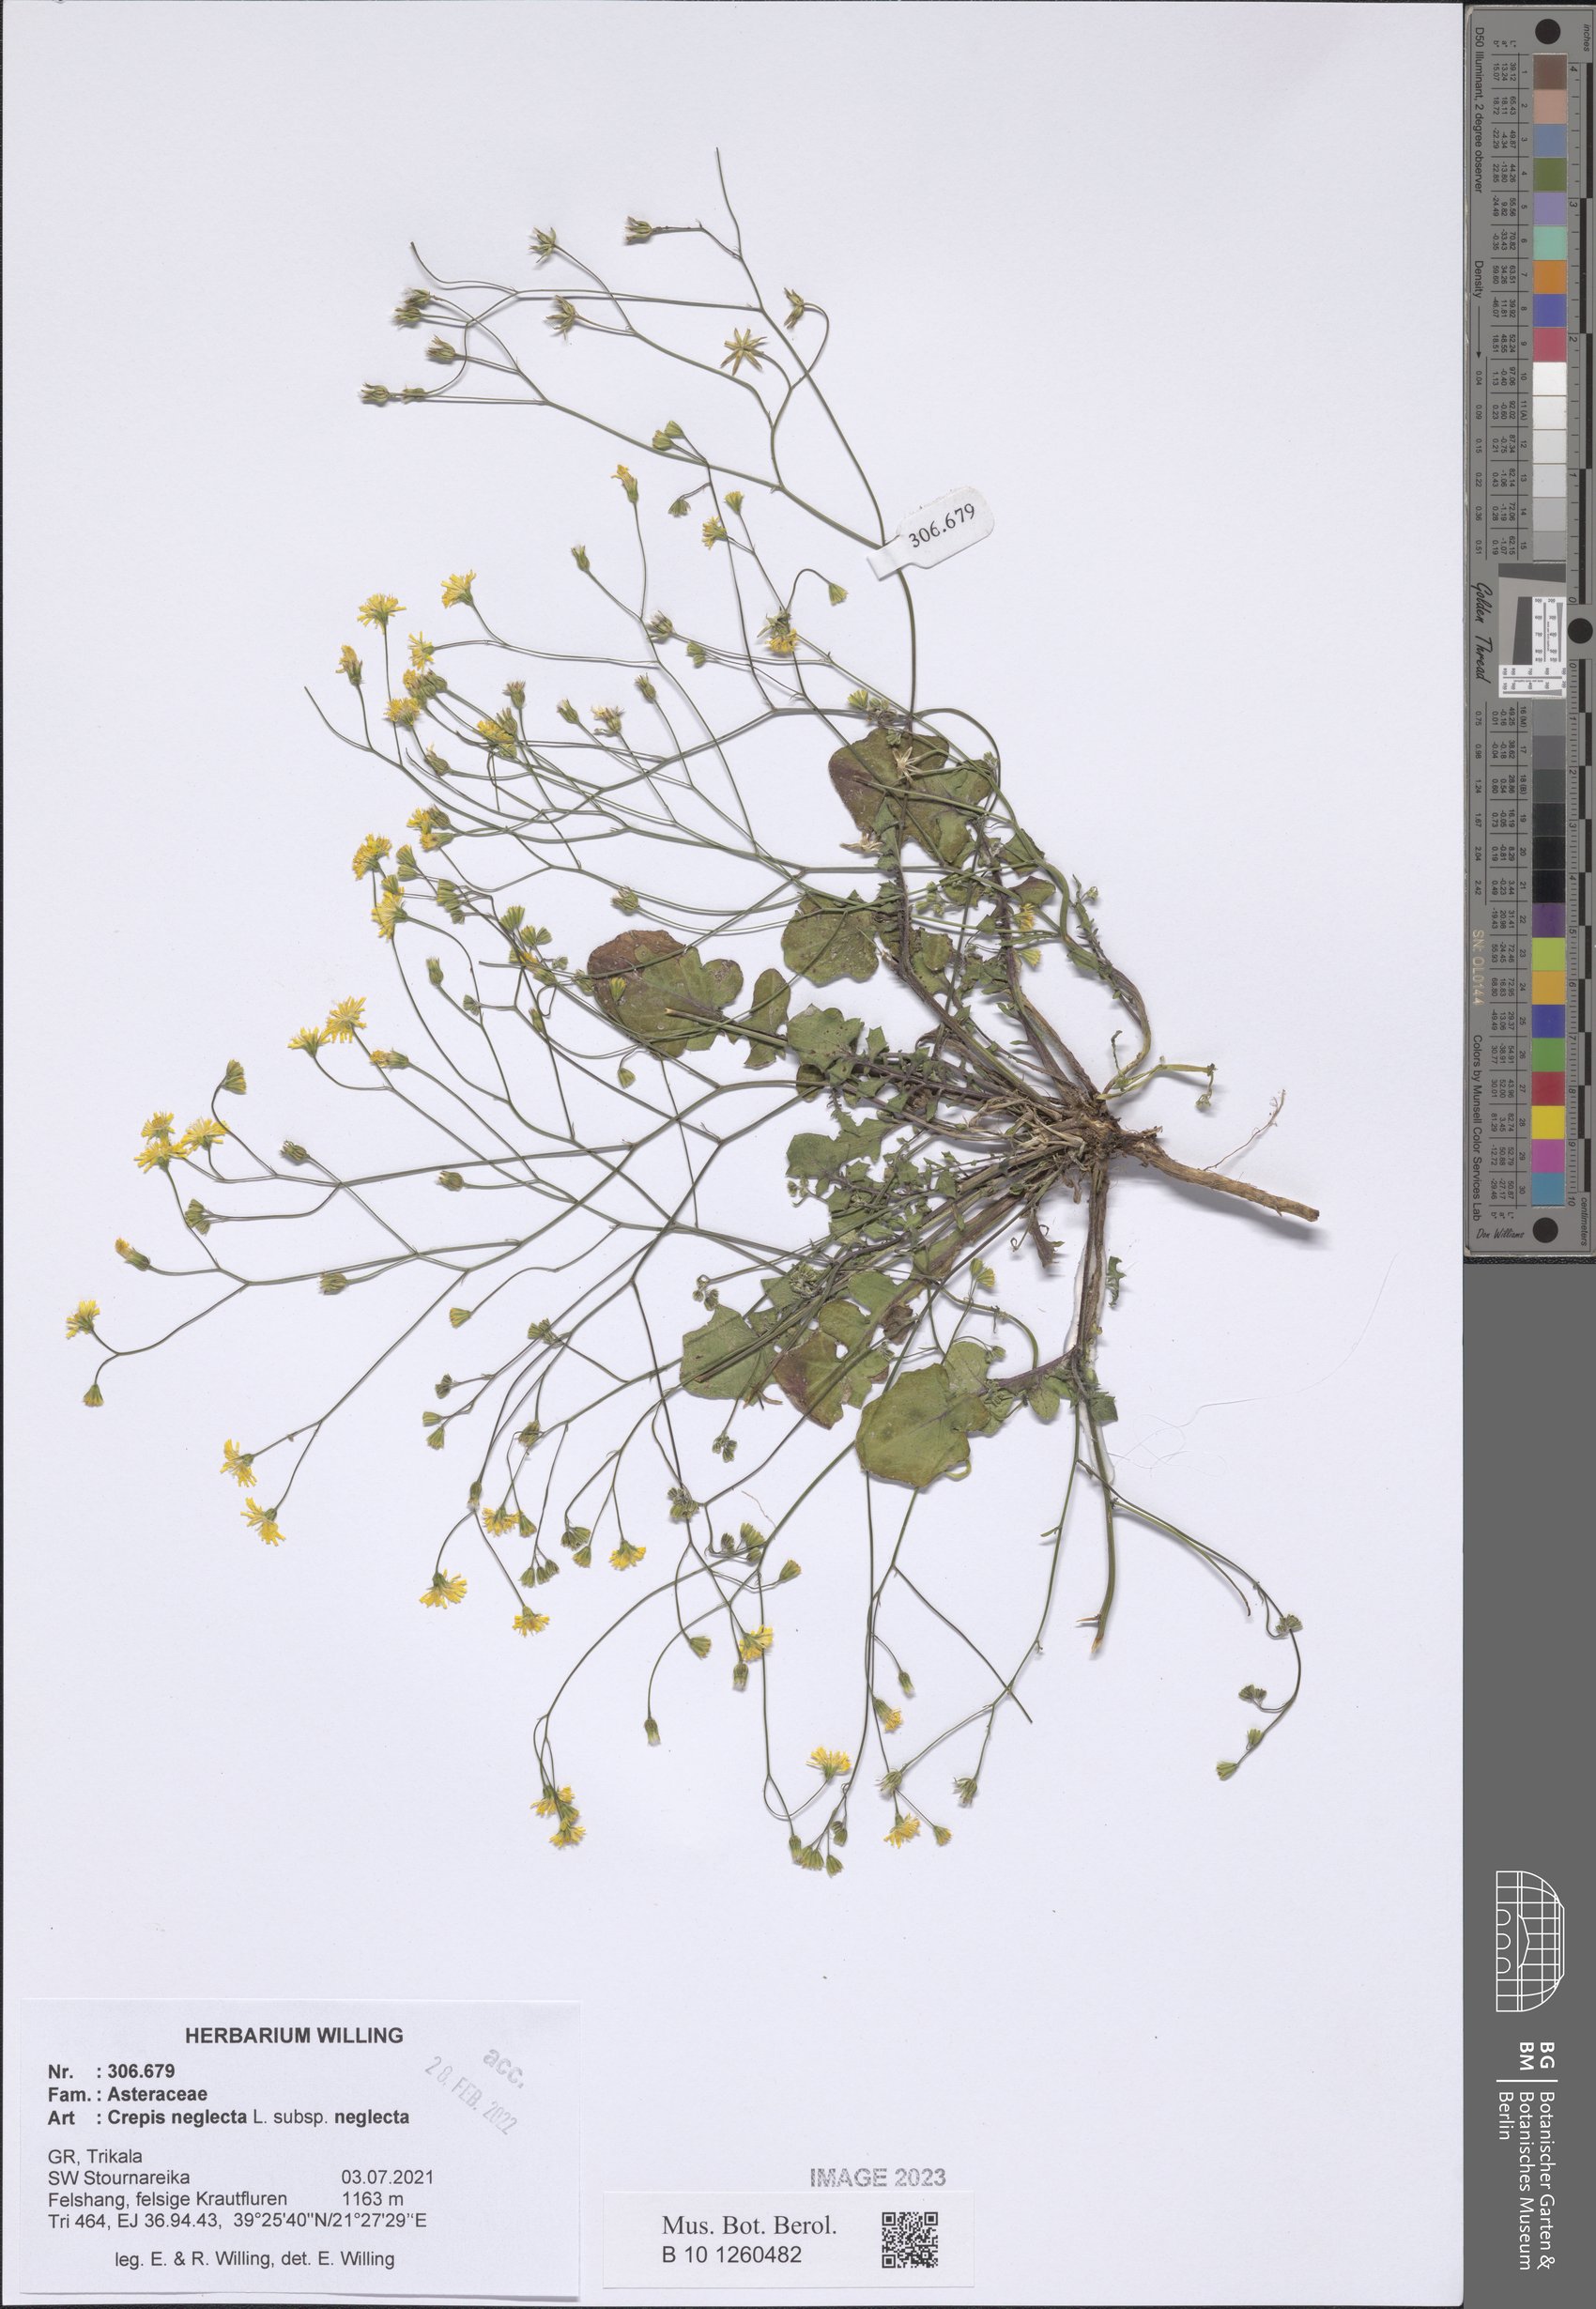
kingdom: Plantae
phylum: Tracheophyta
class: Magnoliopsida
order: Asterales
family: Asteraceae
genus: Crepis
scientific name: Crepis neglecta
